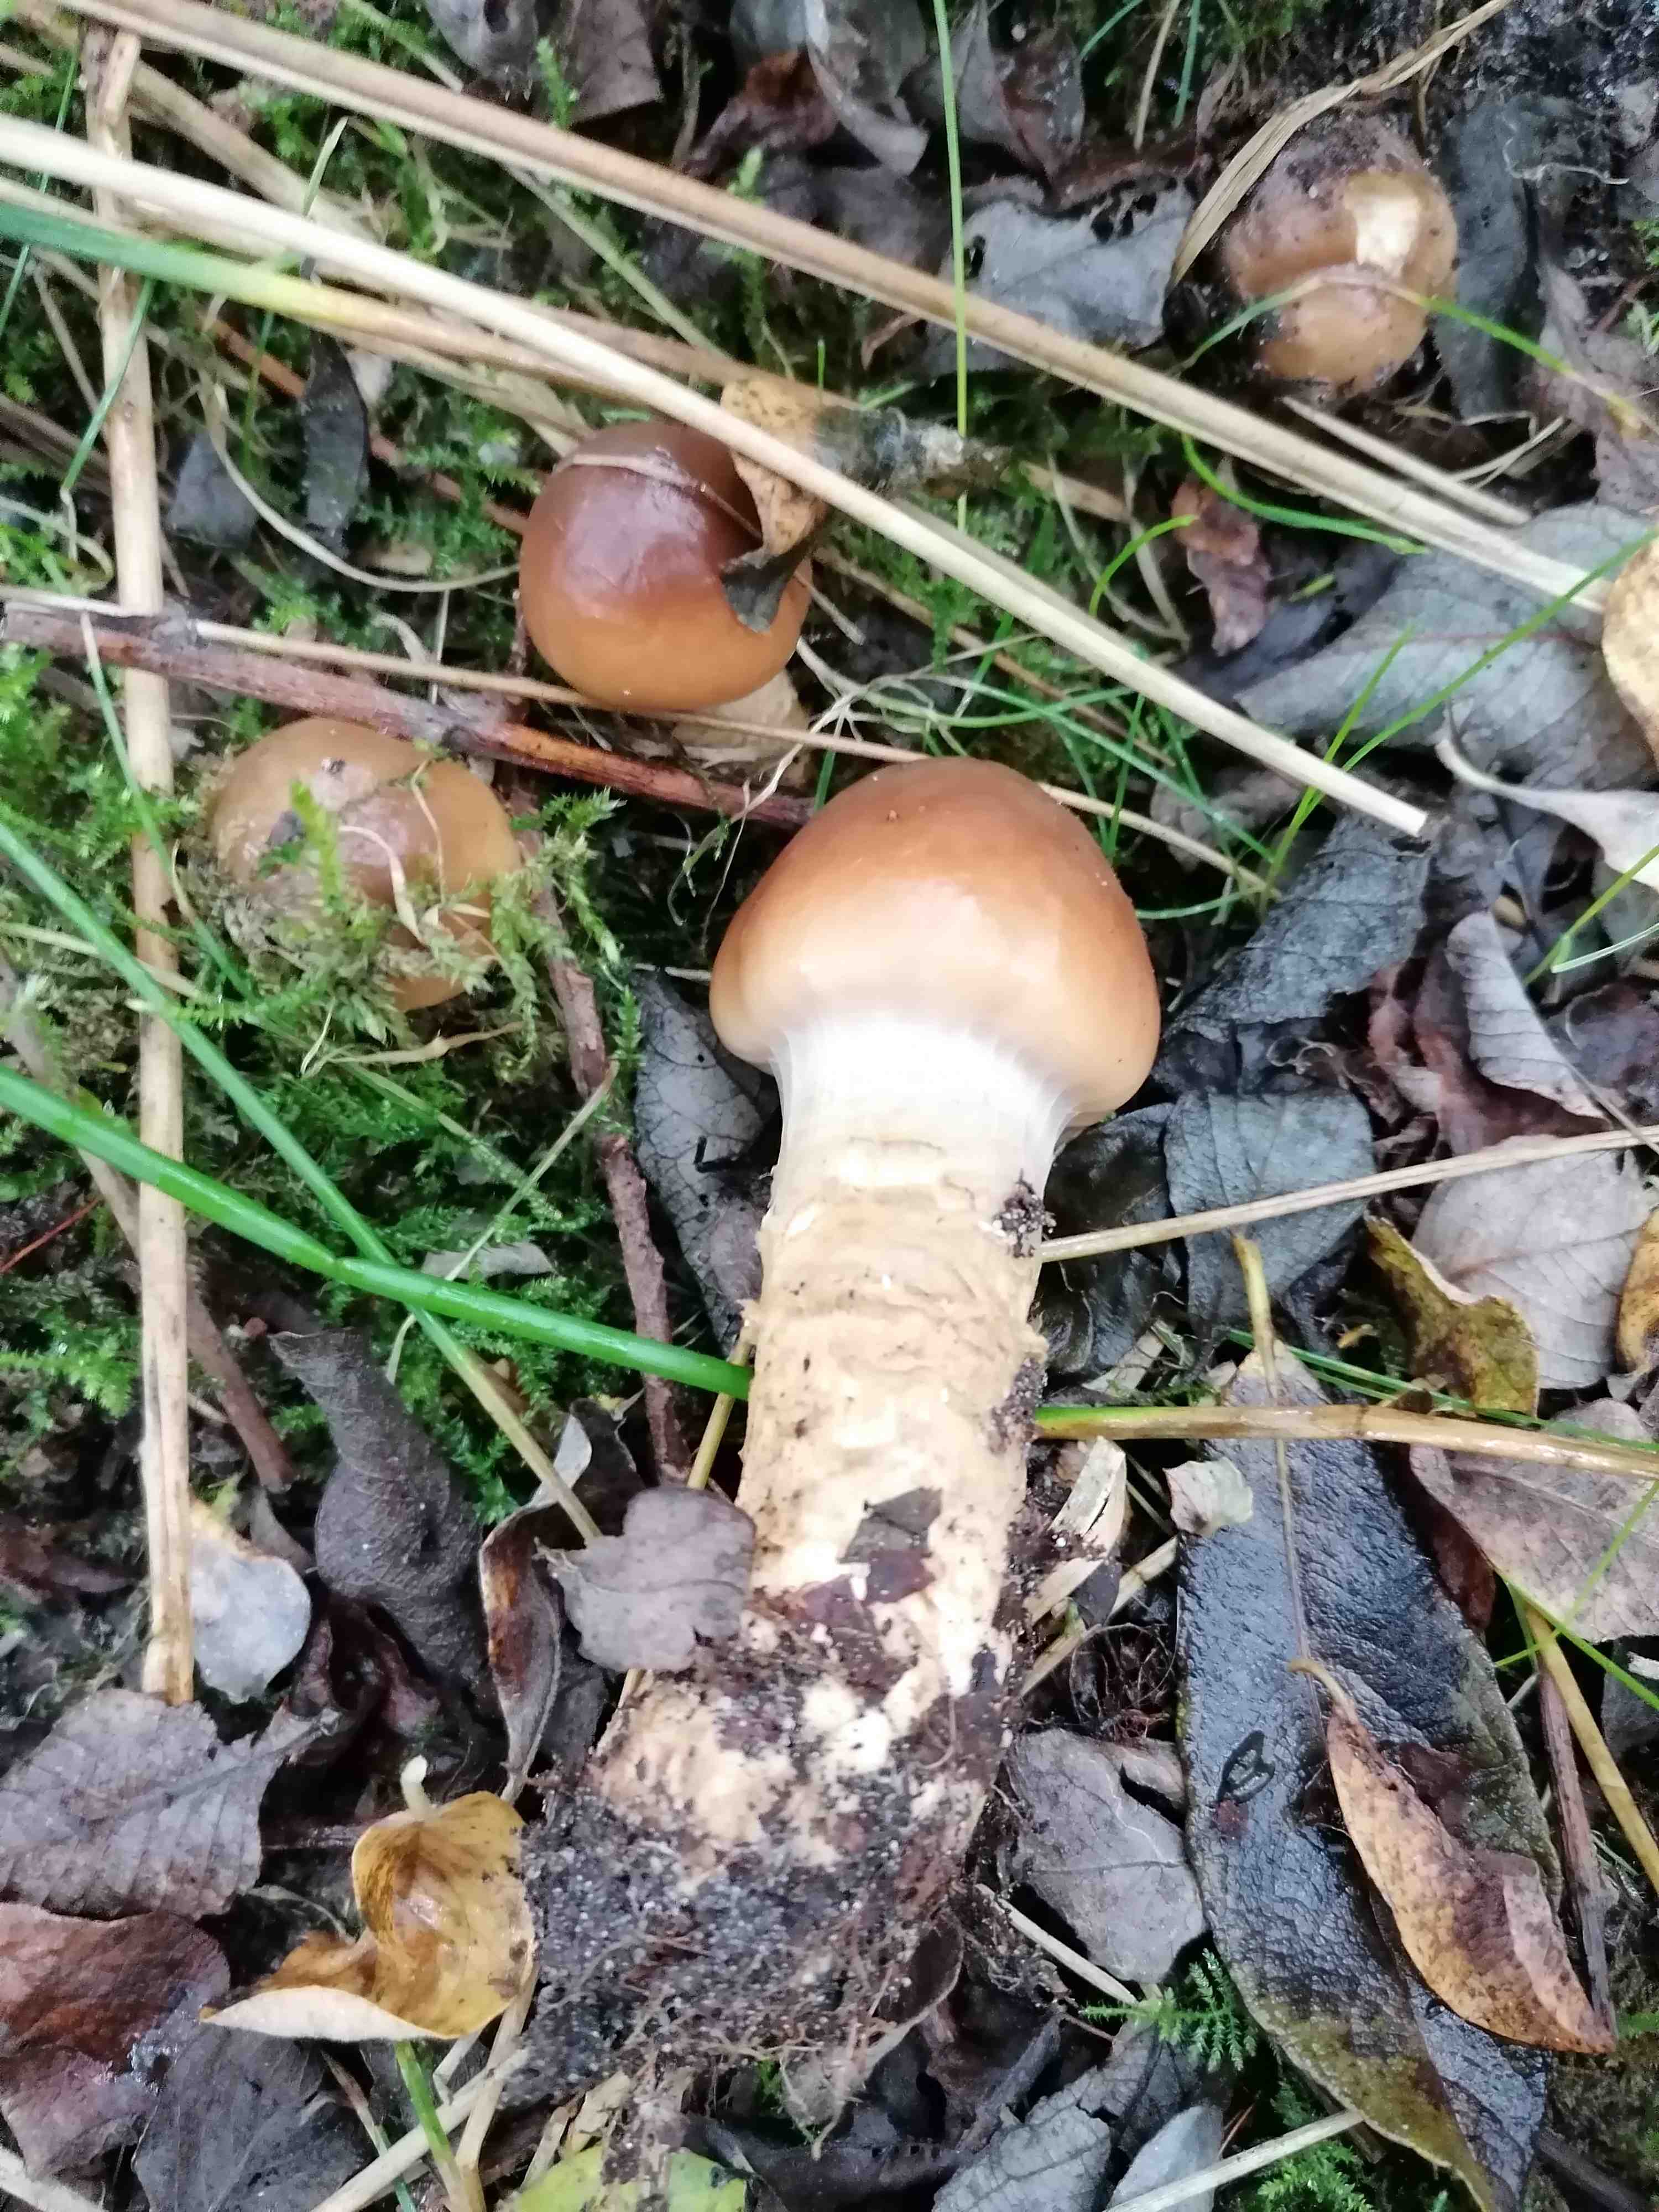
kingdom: Fungi
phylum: Basidiomycota
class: Agaricomycetes
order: Agaricales
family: Cortinariaceae
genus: Cortinarius
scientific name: Cortinarius trivialis
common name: brunslimet slørhat
